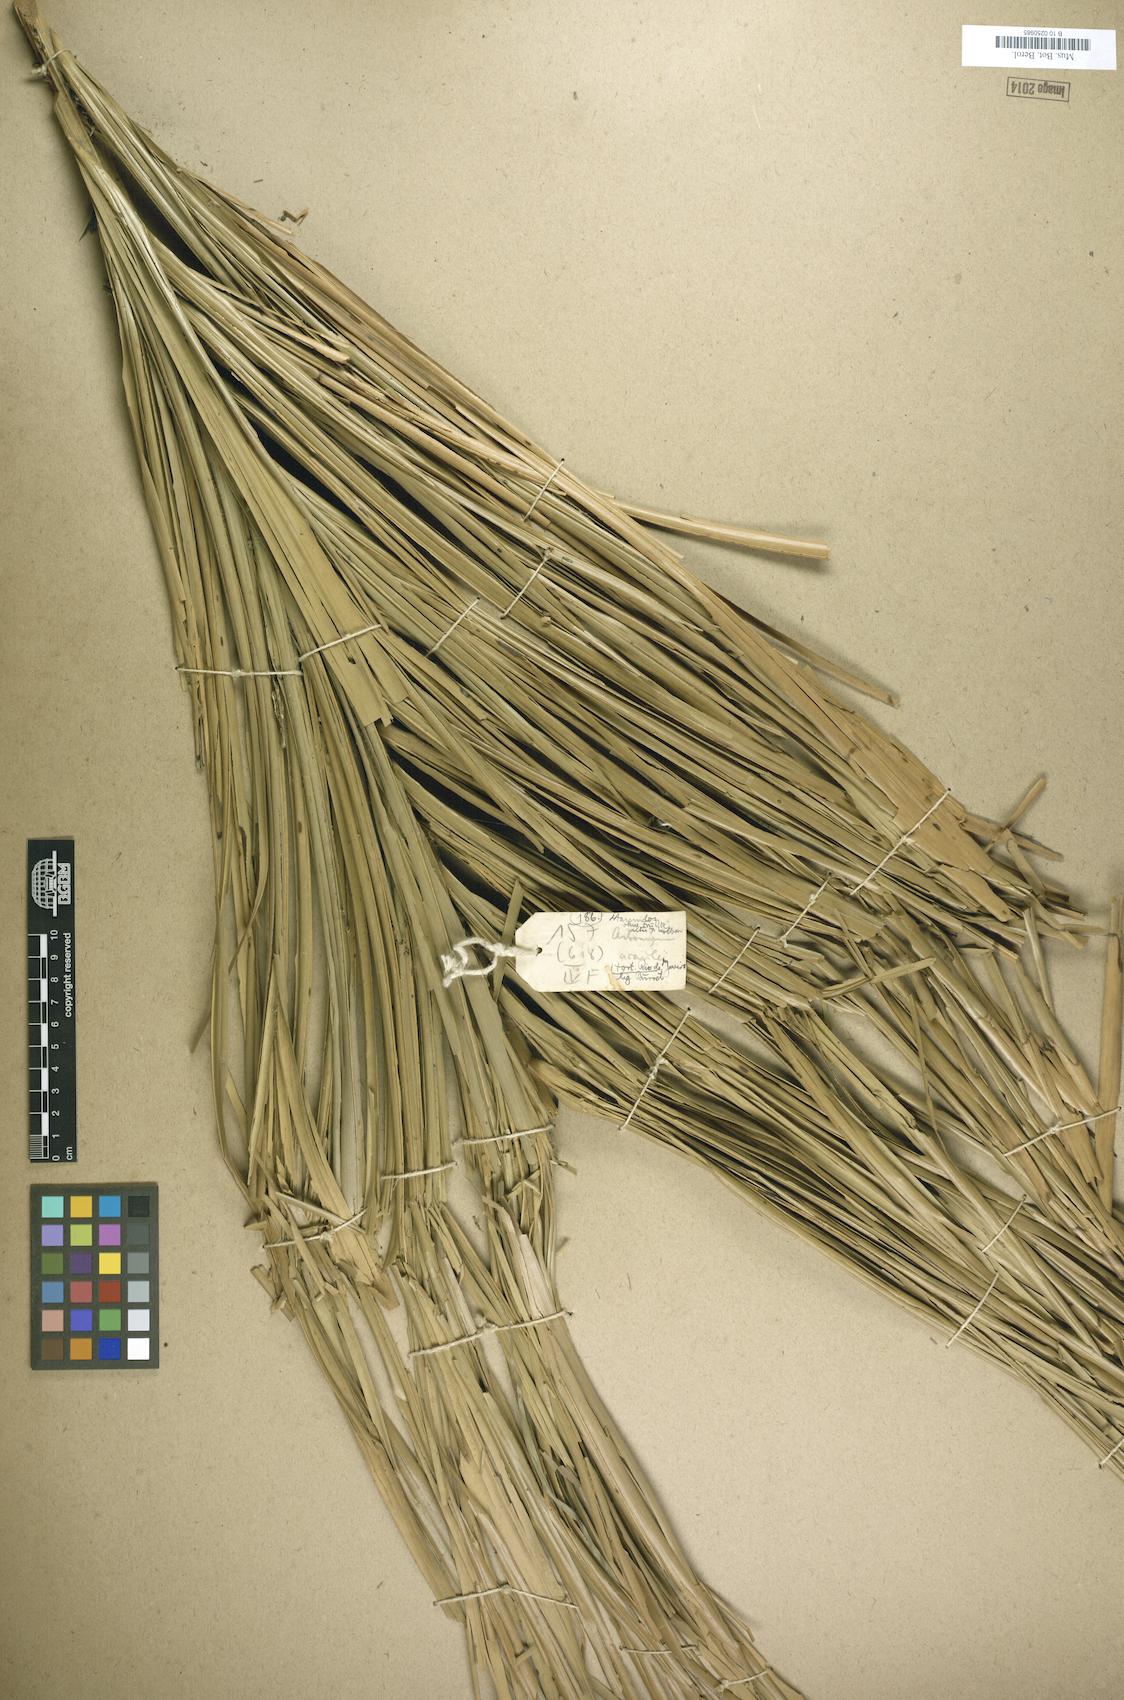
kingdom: Plantae
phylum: Tracheophyta
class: Liliopsida
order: Arecales
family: Arecaceae
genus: Astrocaryum
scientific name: Astrocaryum acaule
